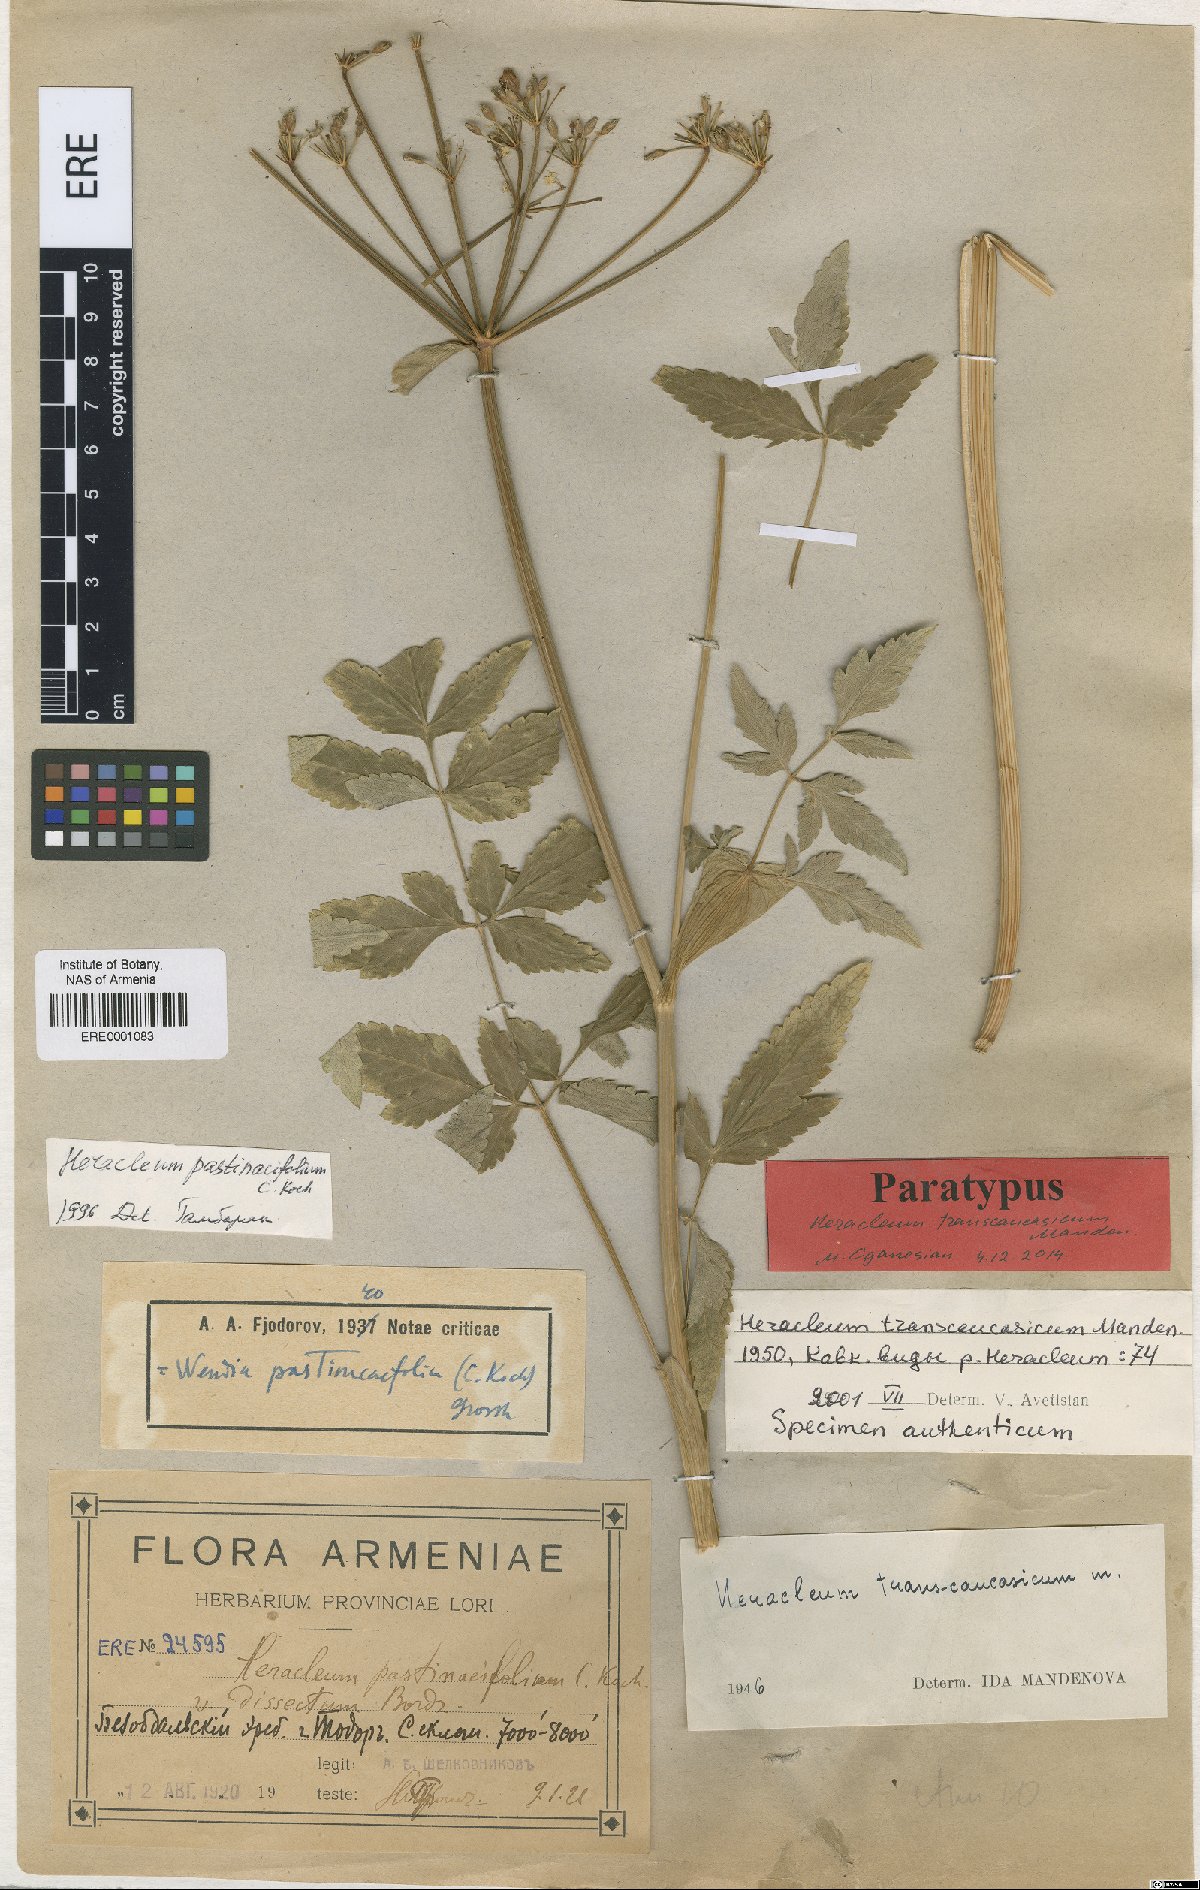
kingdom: Plantae
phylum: Tracheophyta
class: Magnoliopsida
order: Apiales
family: Apiaceae
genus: Heracleum
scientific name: Heracleum pastinacifolium
